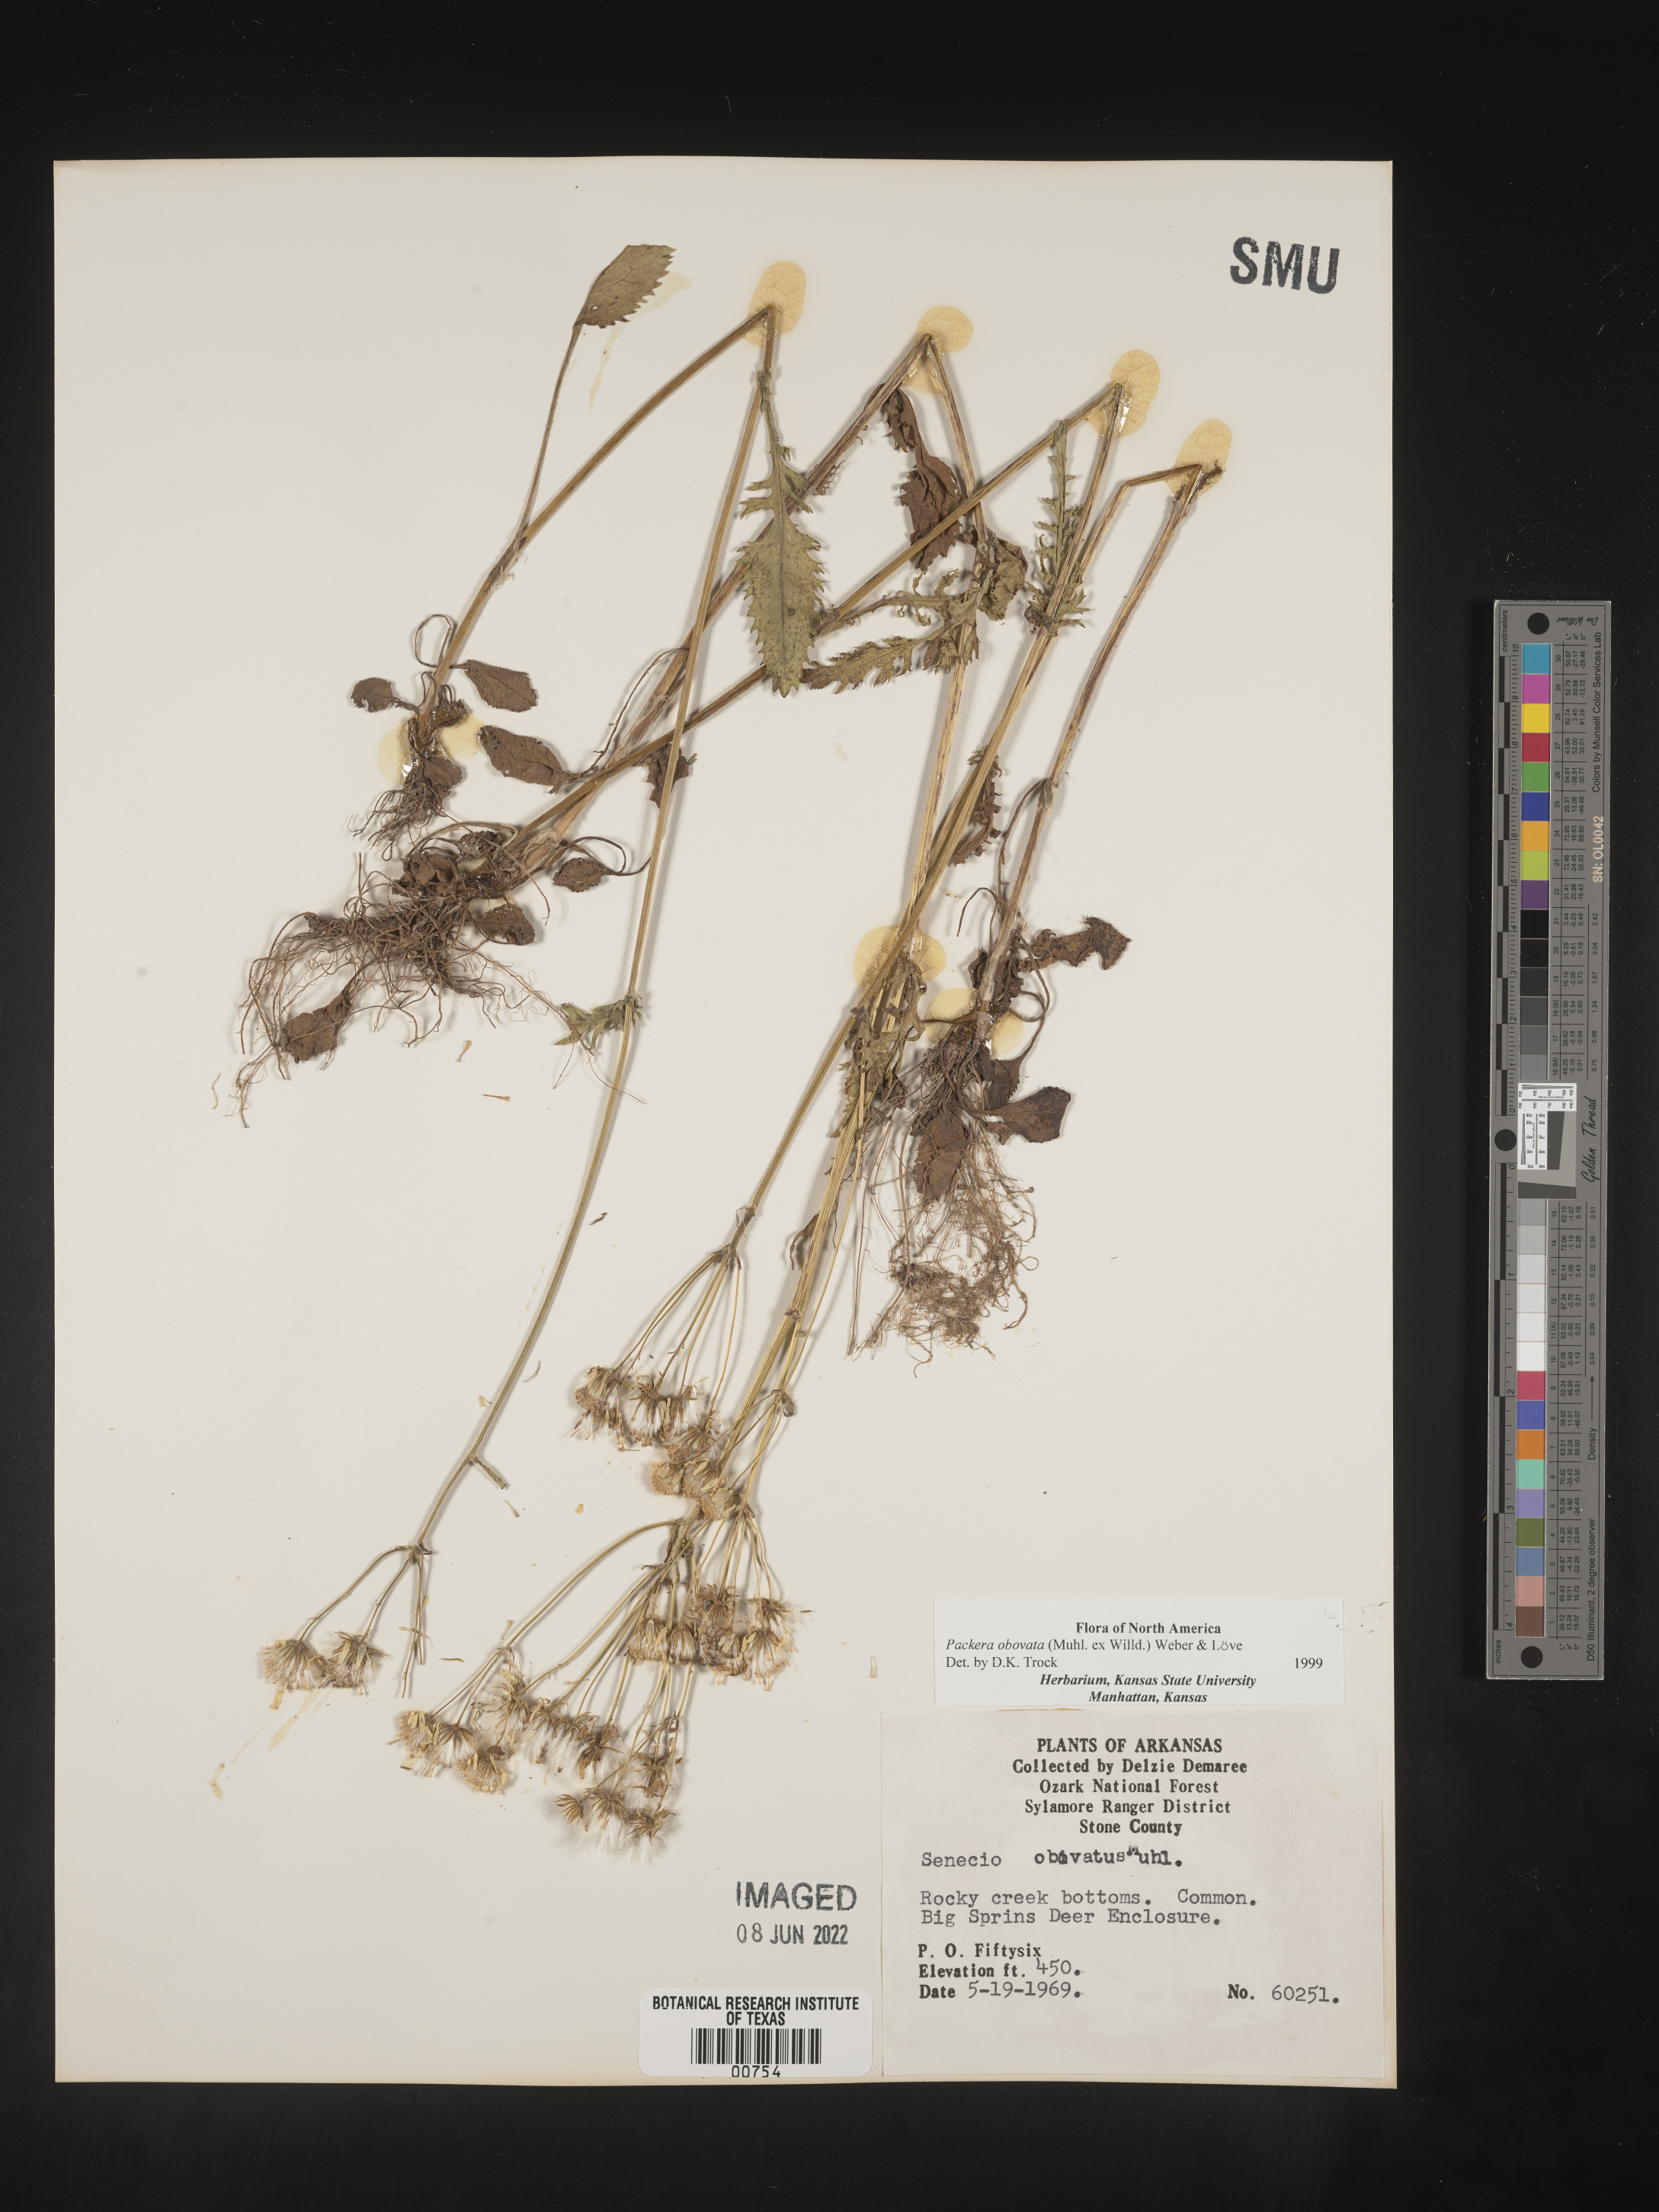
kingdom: Plantae
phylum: Tracheophyta
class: Magnoliopsida
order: Asterales
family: Asteraceae
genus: Packera
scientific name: Packera obovata
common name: Round-leaf ragwort
